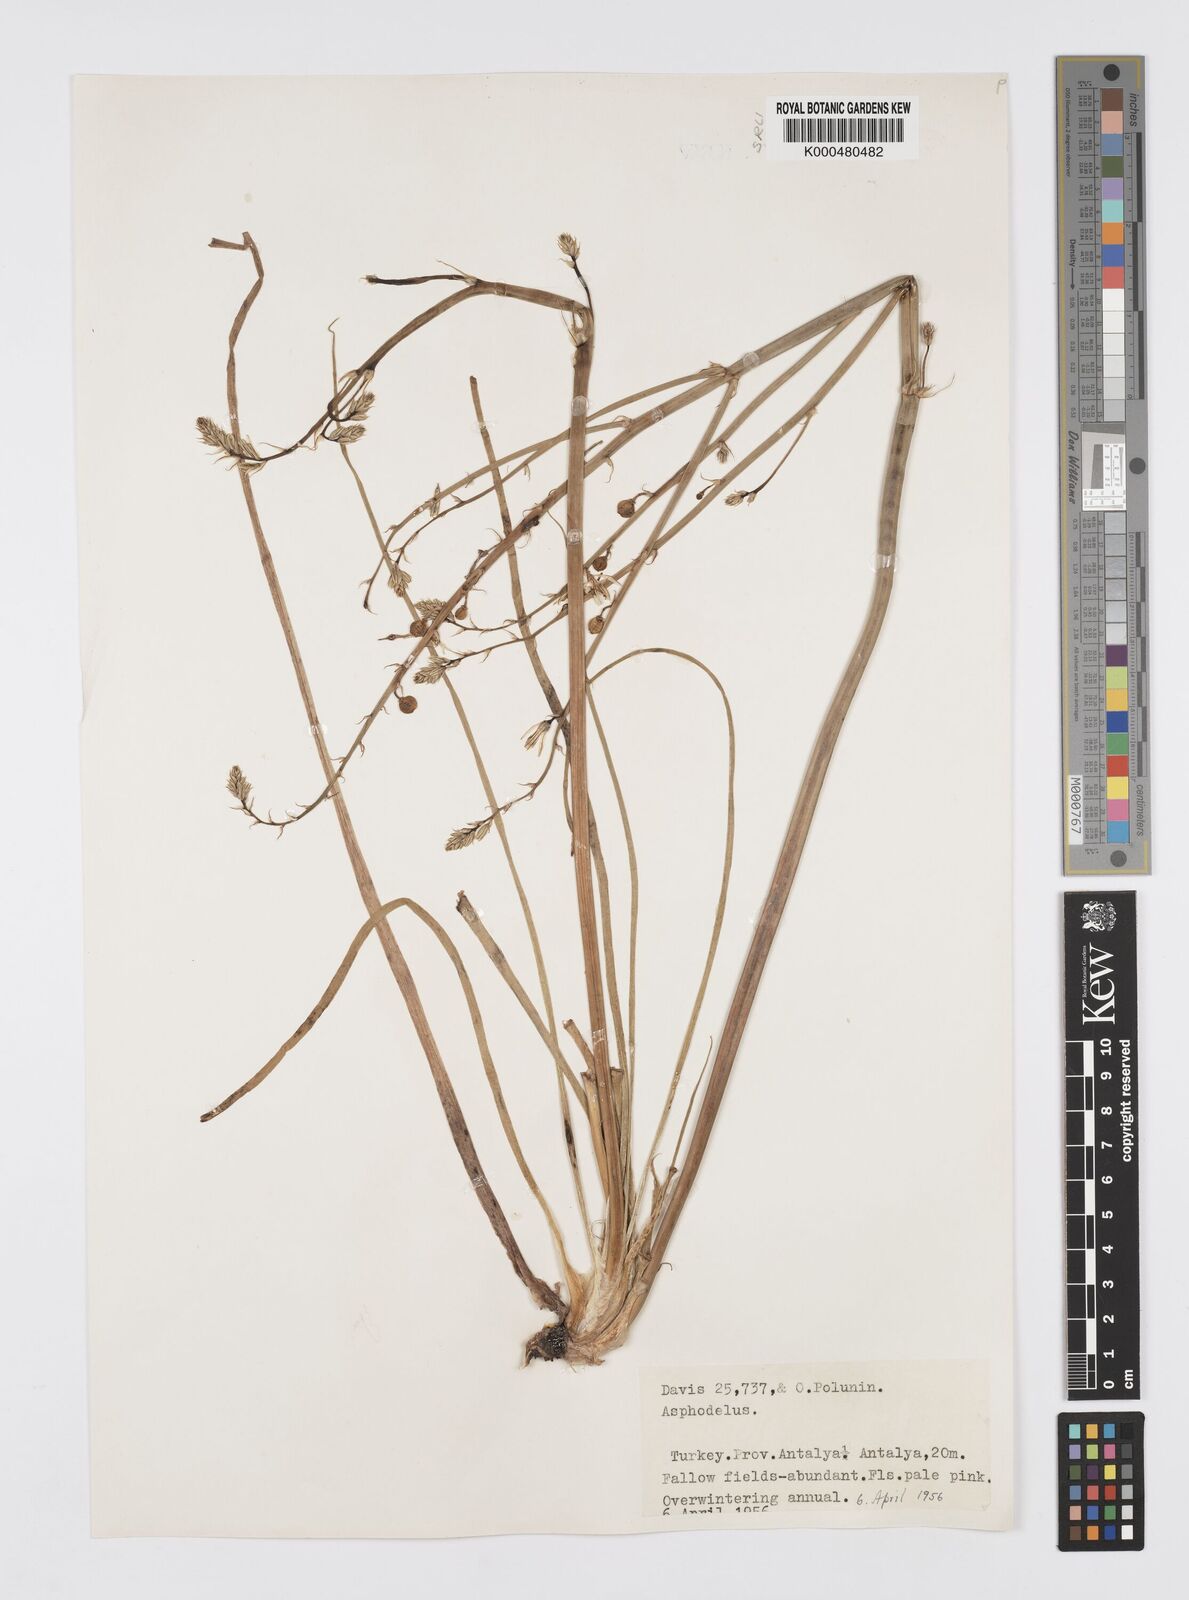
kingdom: Plantae
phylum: Tracheophyta
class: Liliopsida
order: Asparagales
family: Asphodelaceae
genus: Asphodelus
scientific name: Asphodelus fistulosus
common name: Onionweed
